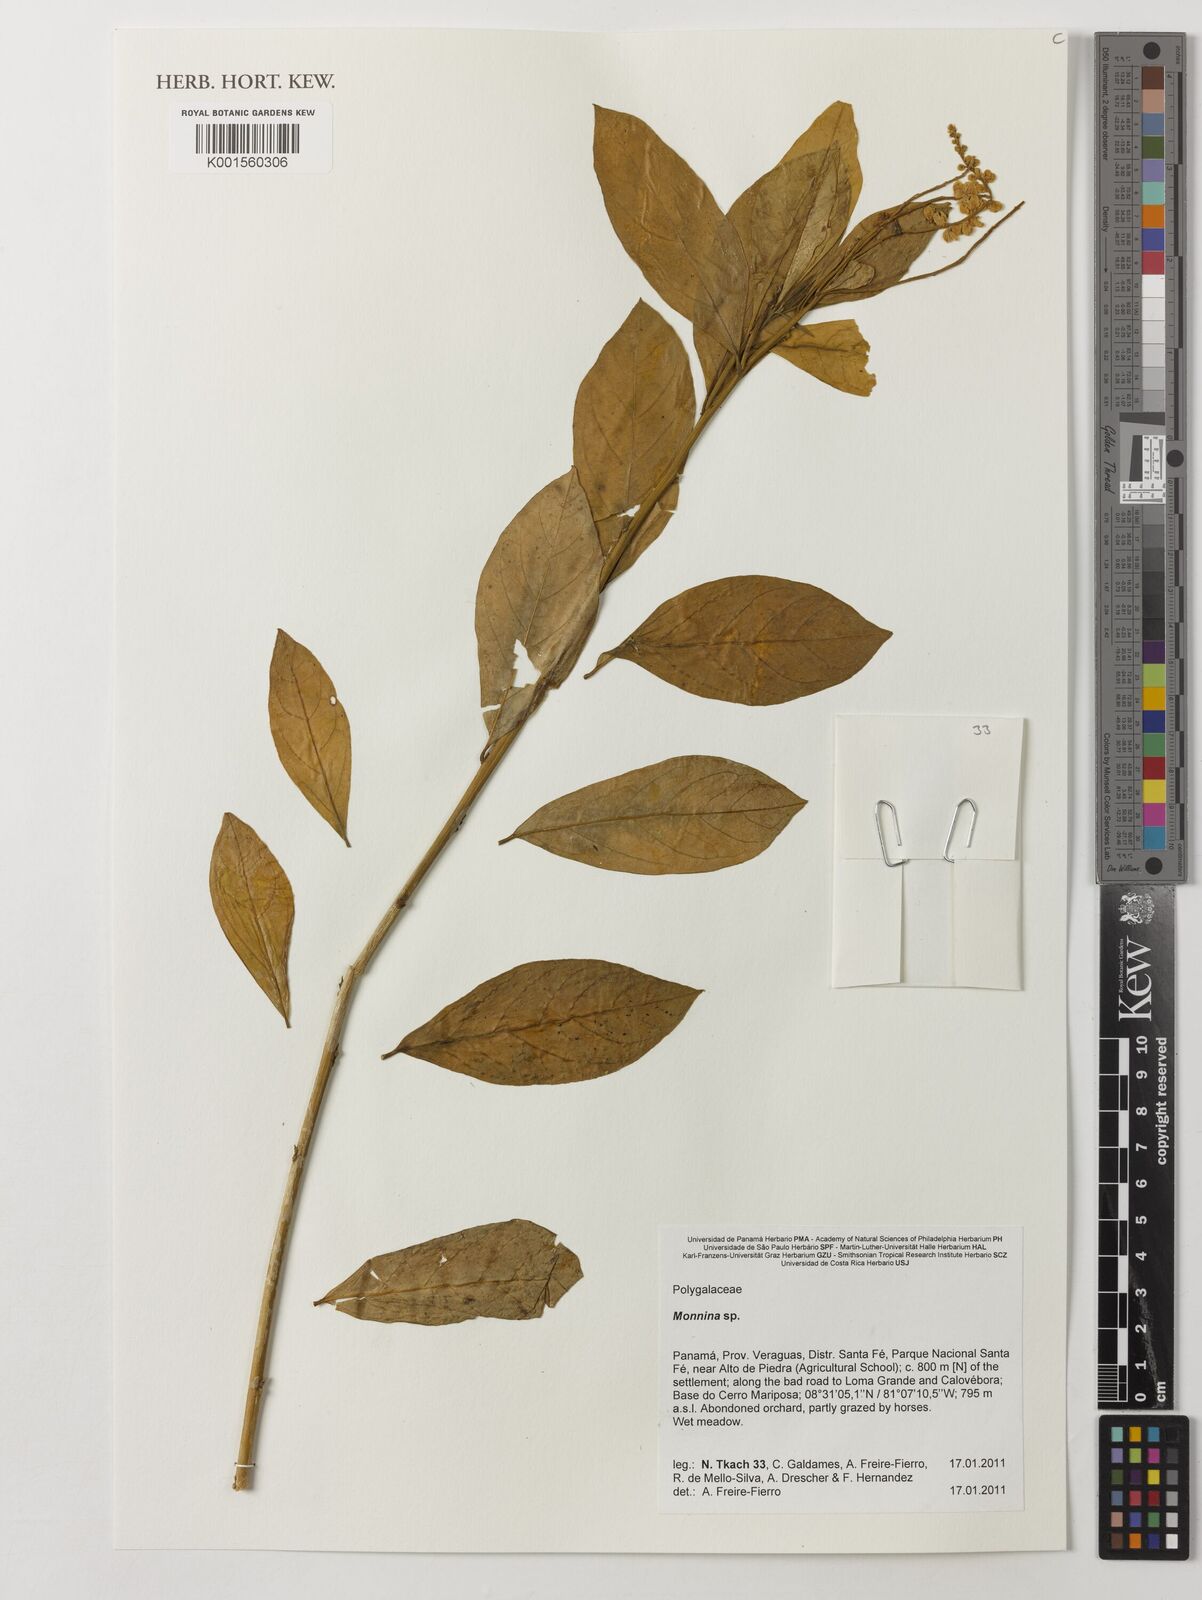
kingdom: Plantae
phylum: Tracheophyta
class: Magnoliopsida
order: Fabales
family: Polygalaceae
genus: Monnina
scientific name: Monnina
